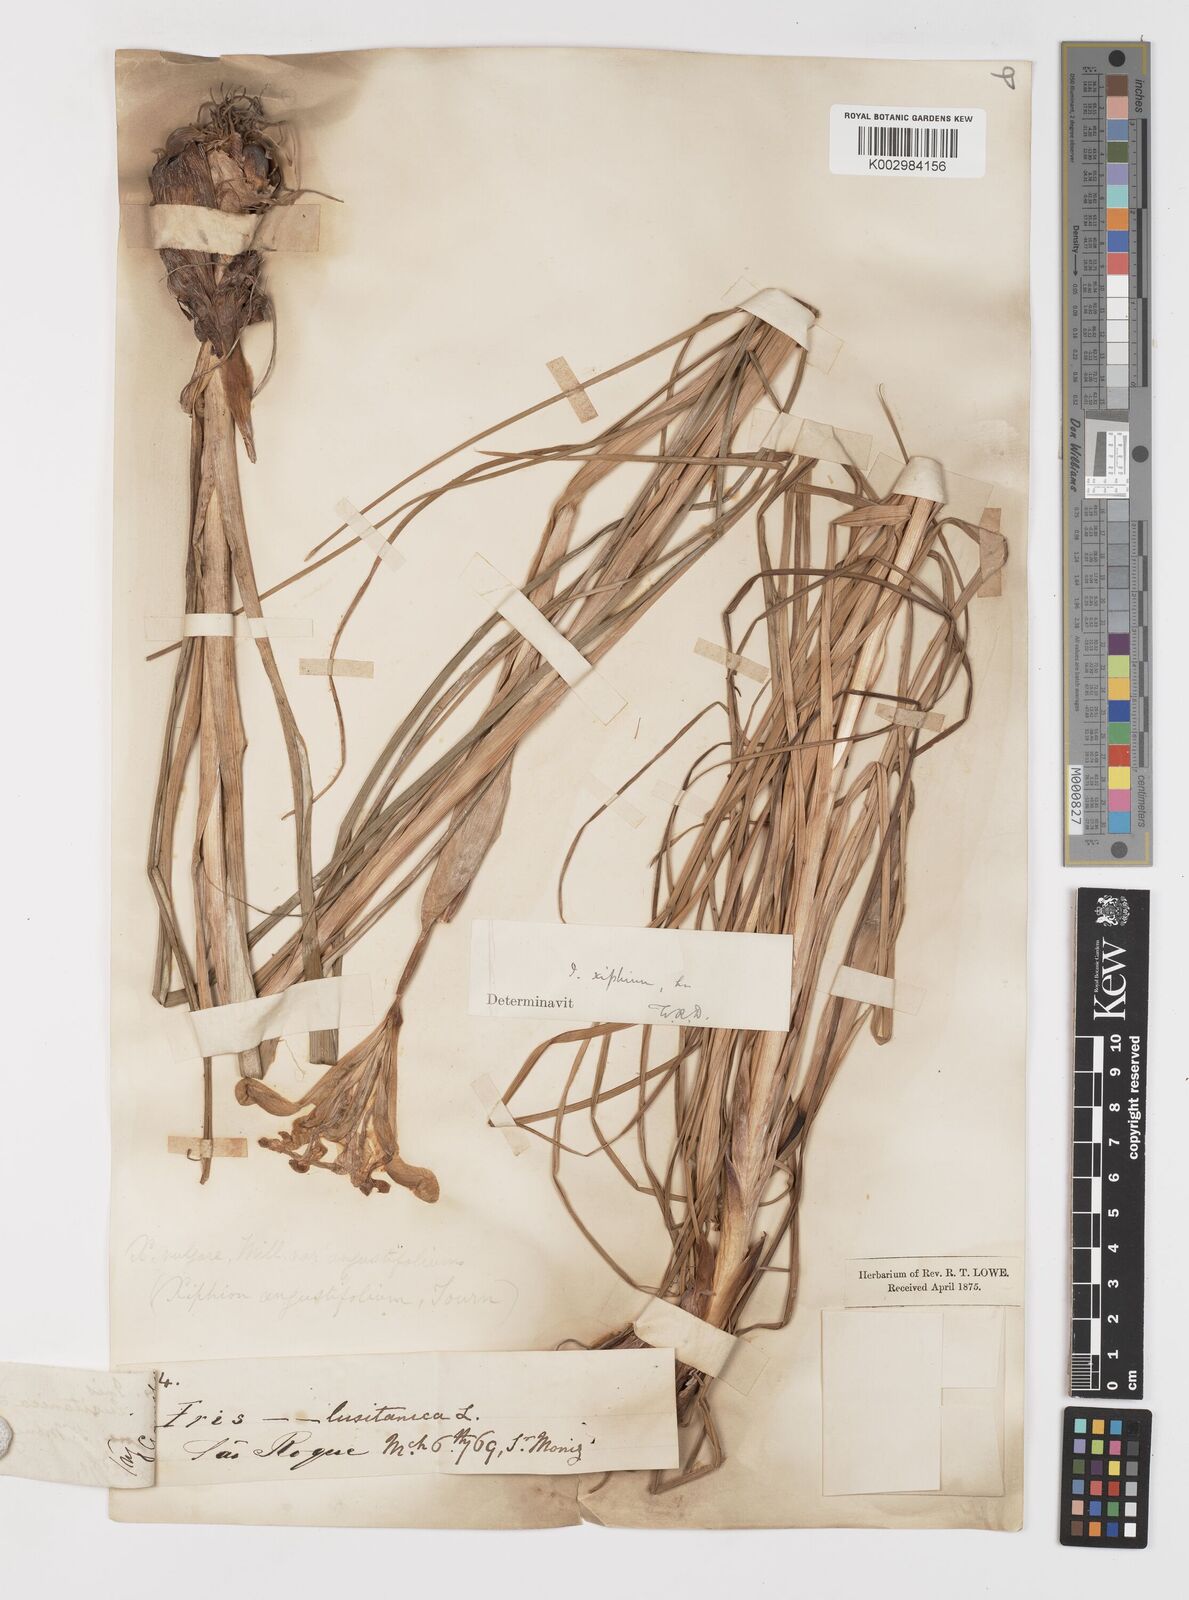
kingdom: Plantae
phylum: Tracheophyta
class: Liliopsida
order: Asparagales
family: Iridaceae
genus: Iris
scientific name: Iris xiphium
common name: Spanish iris
